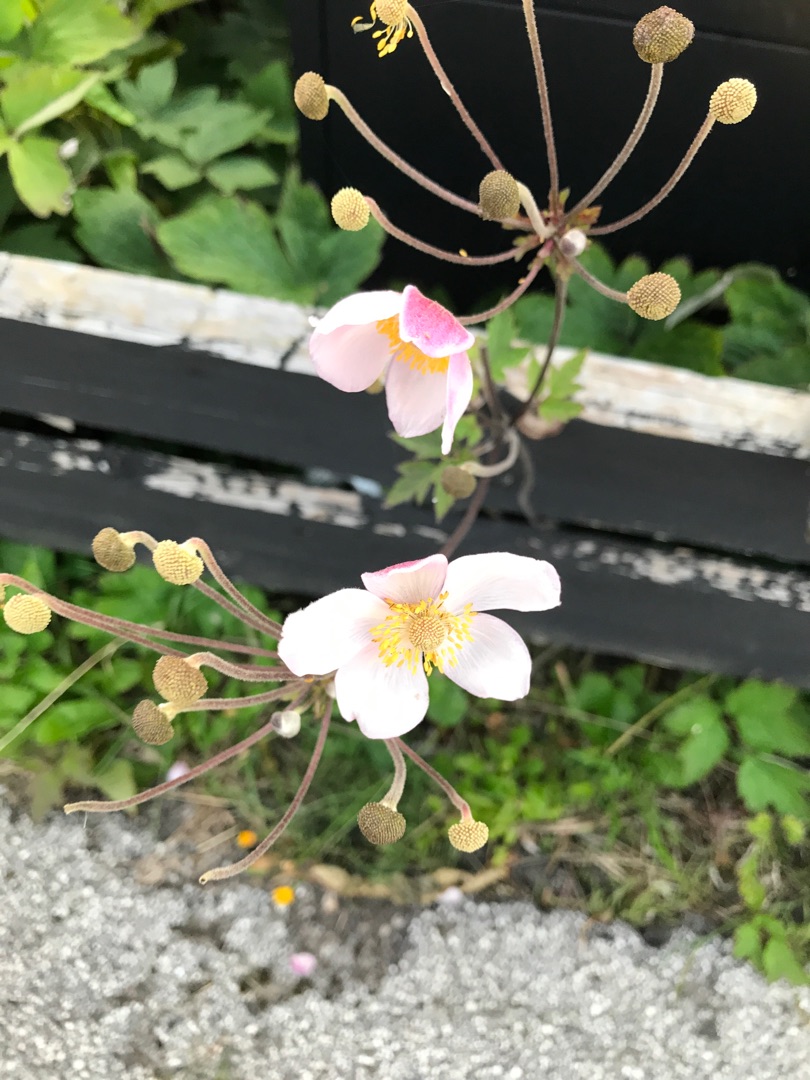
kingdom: Plantae
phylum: Tracheophyta
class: Magnoliopsida
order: Ranunculales
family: Ranunculaceae
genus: Eriocapitella
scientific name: Eriocapitella hupehensis
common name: Høst-anemone
